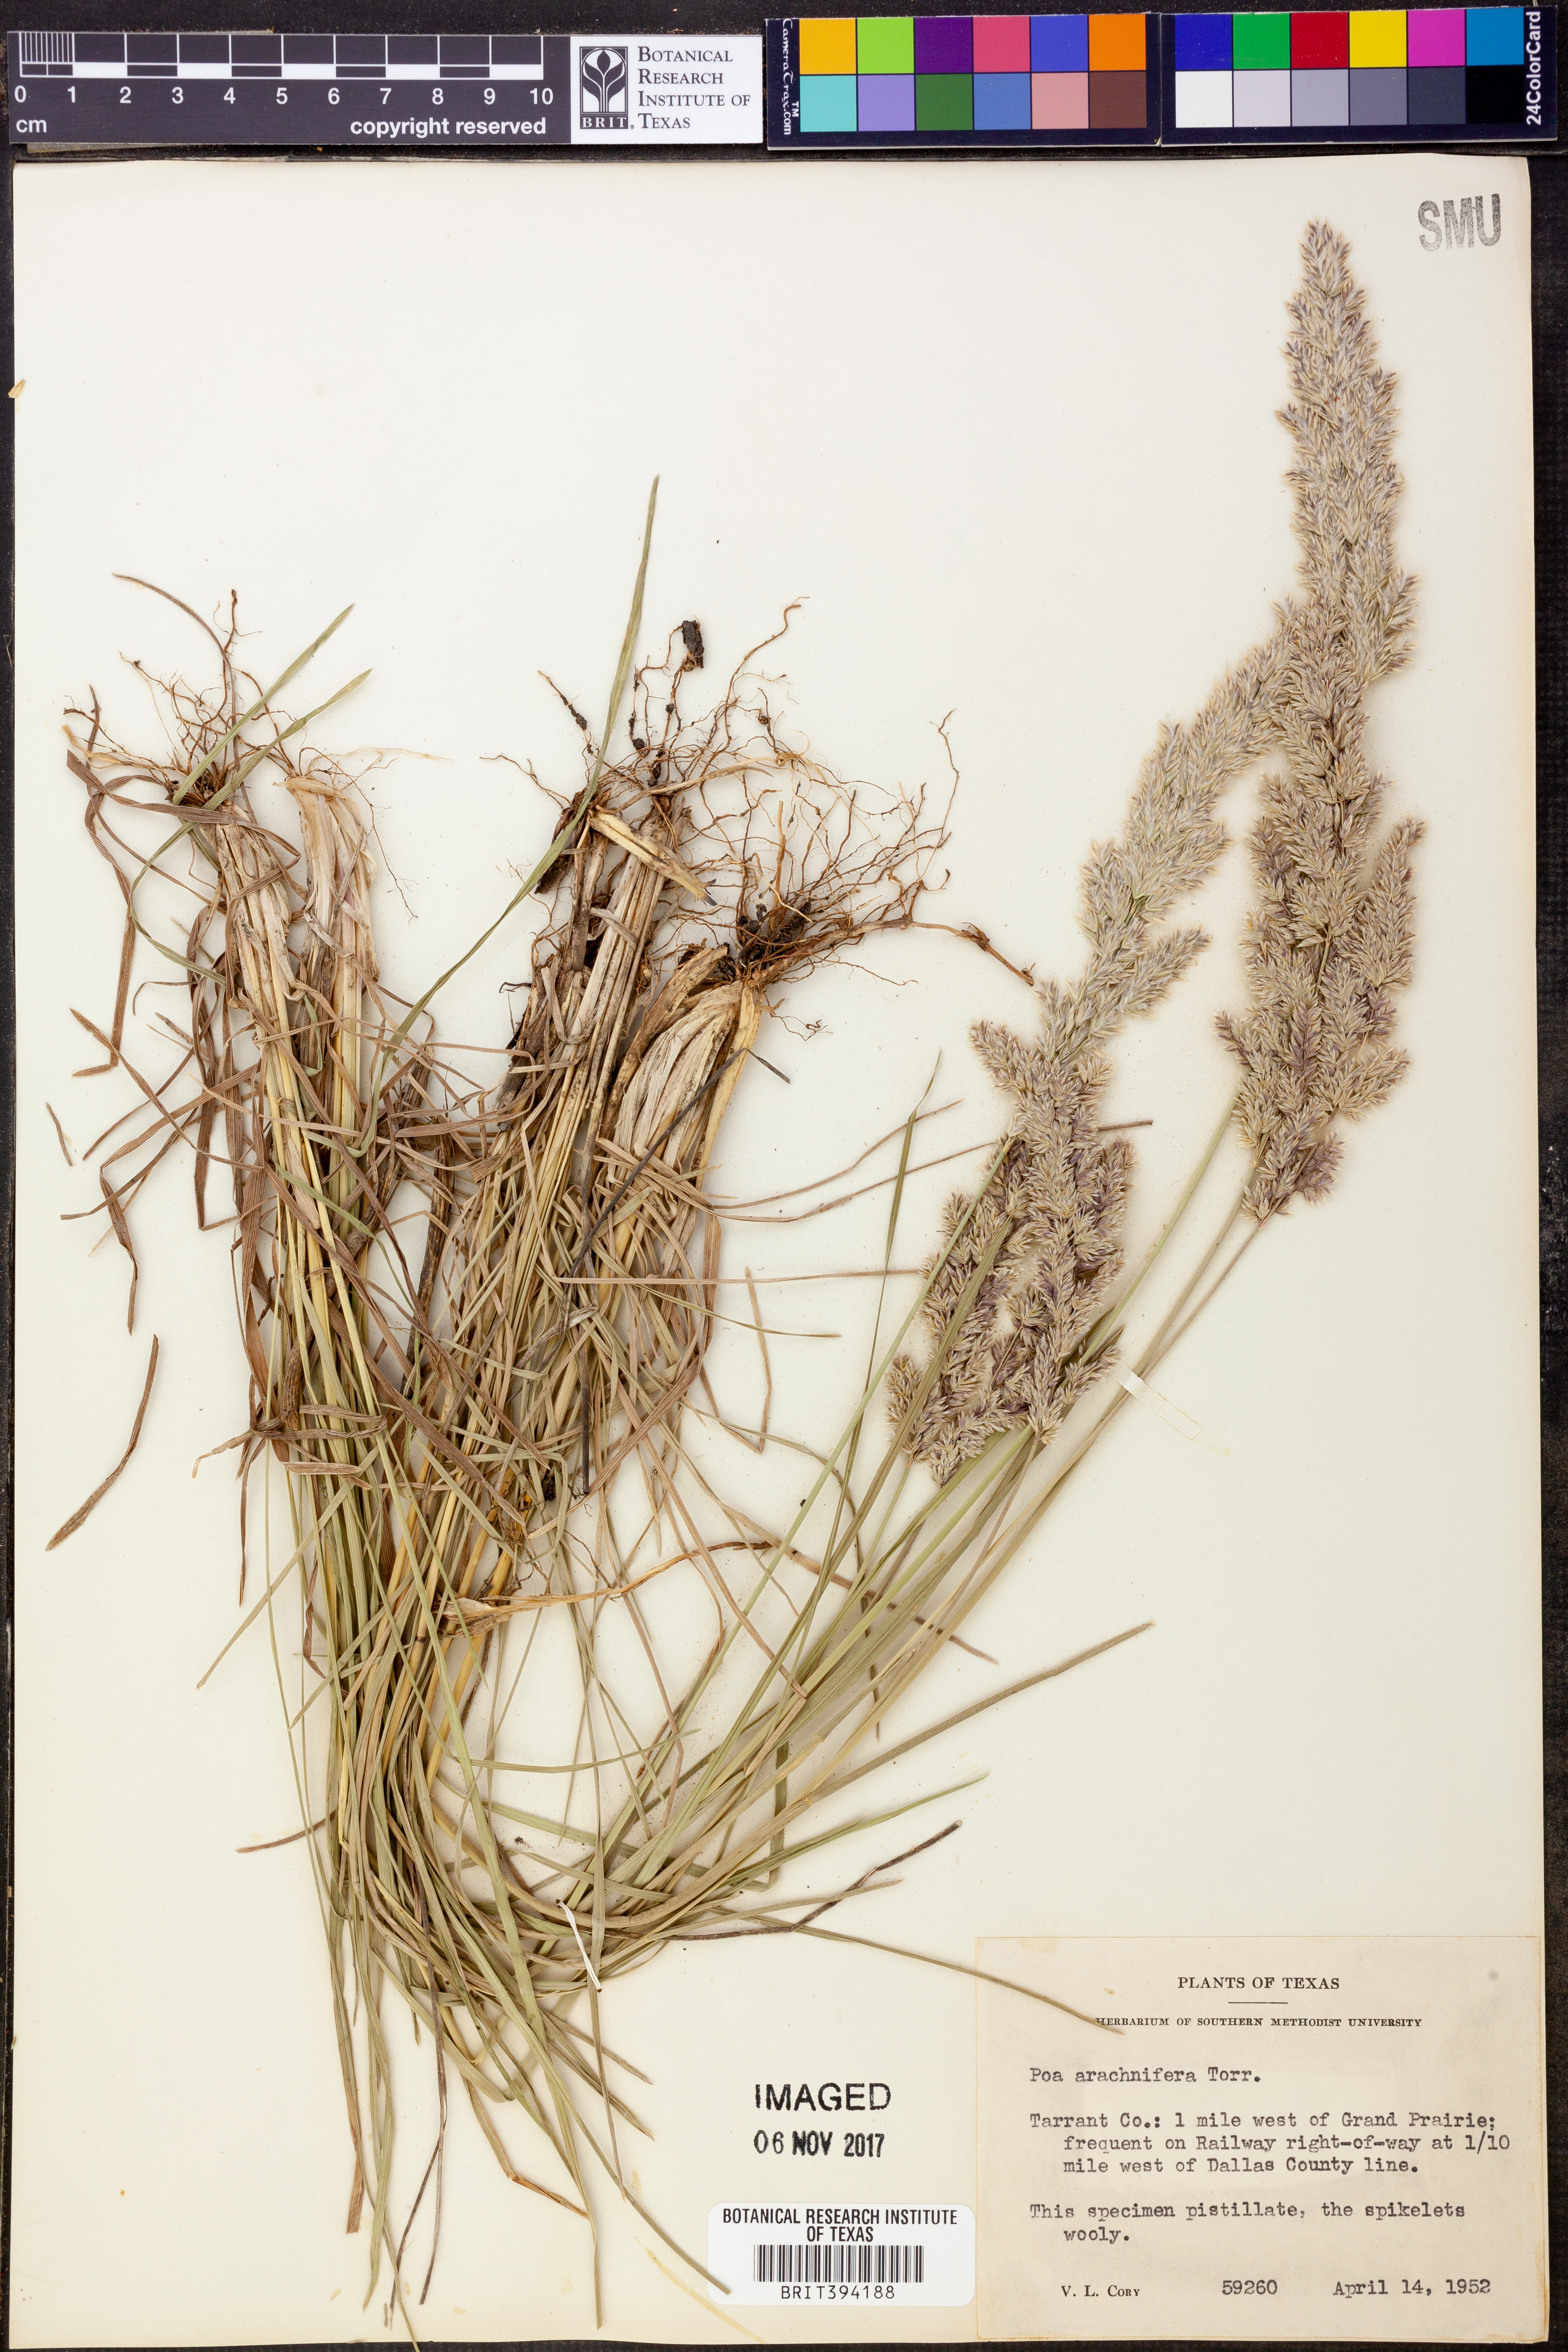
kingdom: Plantae
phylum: Tracheophyta
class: Liliopsida
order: Poales
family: Poaceae
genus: Poa
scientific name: Poa arachnifera
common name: Texas bluegrass
